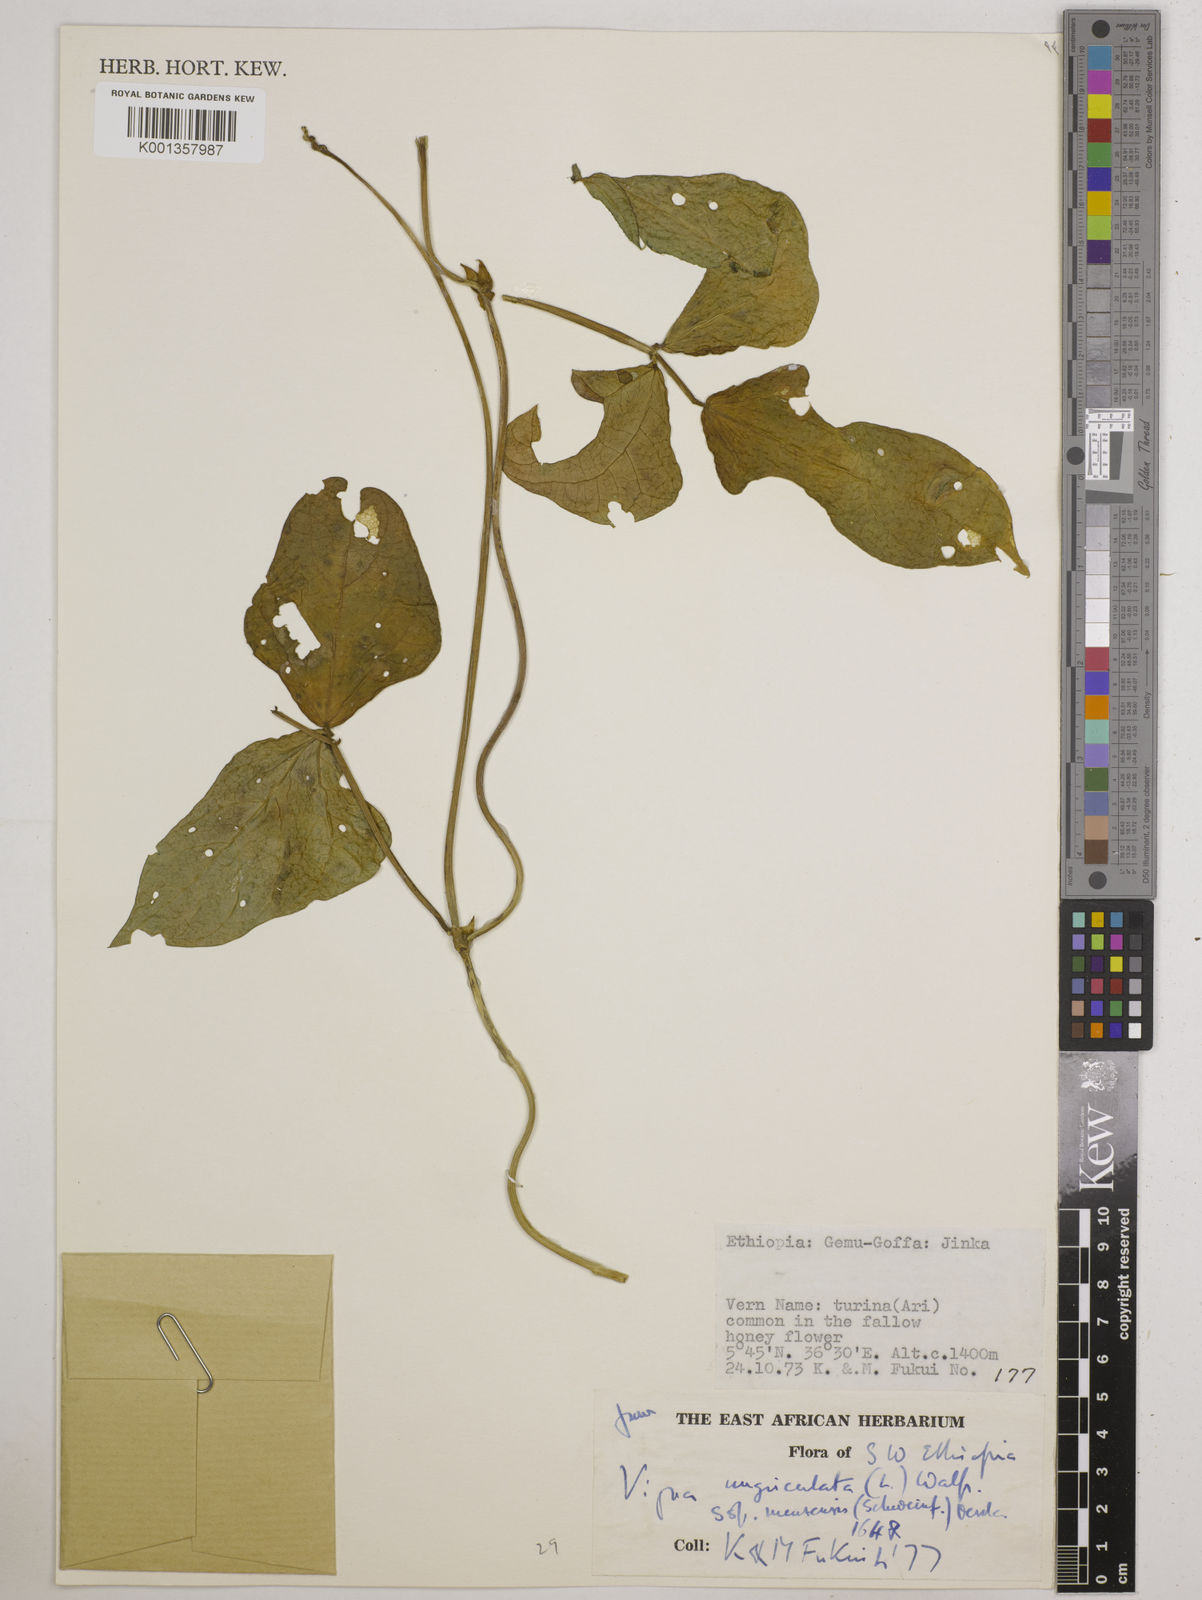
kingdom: Plantae
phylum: Tracheophyta
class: Magnoliopsida
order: Fabales
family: Fabaceae
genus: Vigna
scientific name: Vigna unguiculata
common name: Cowpea
